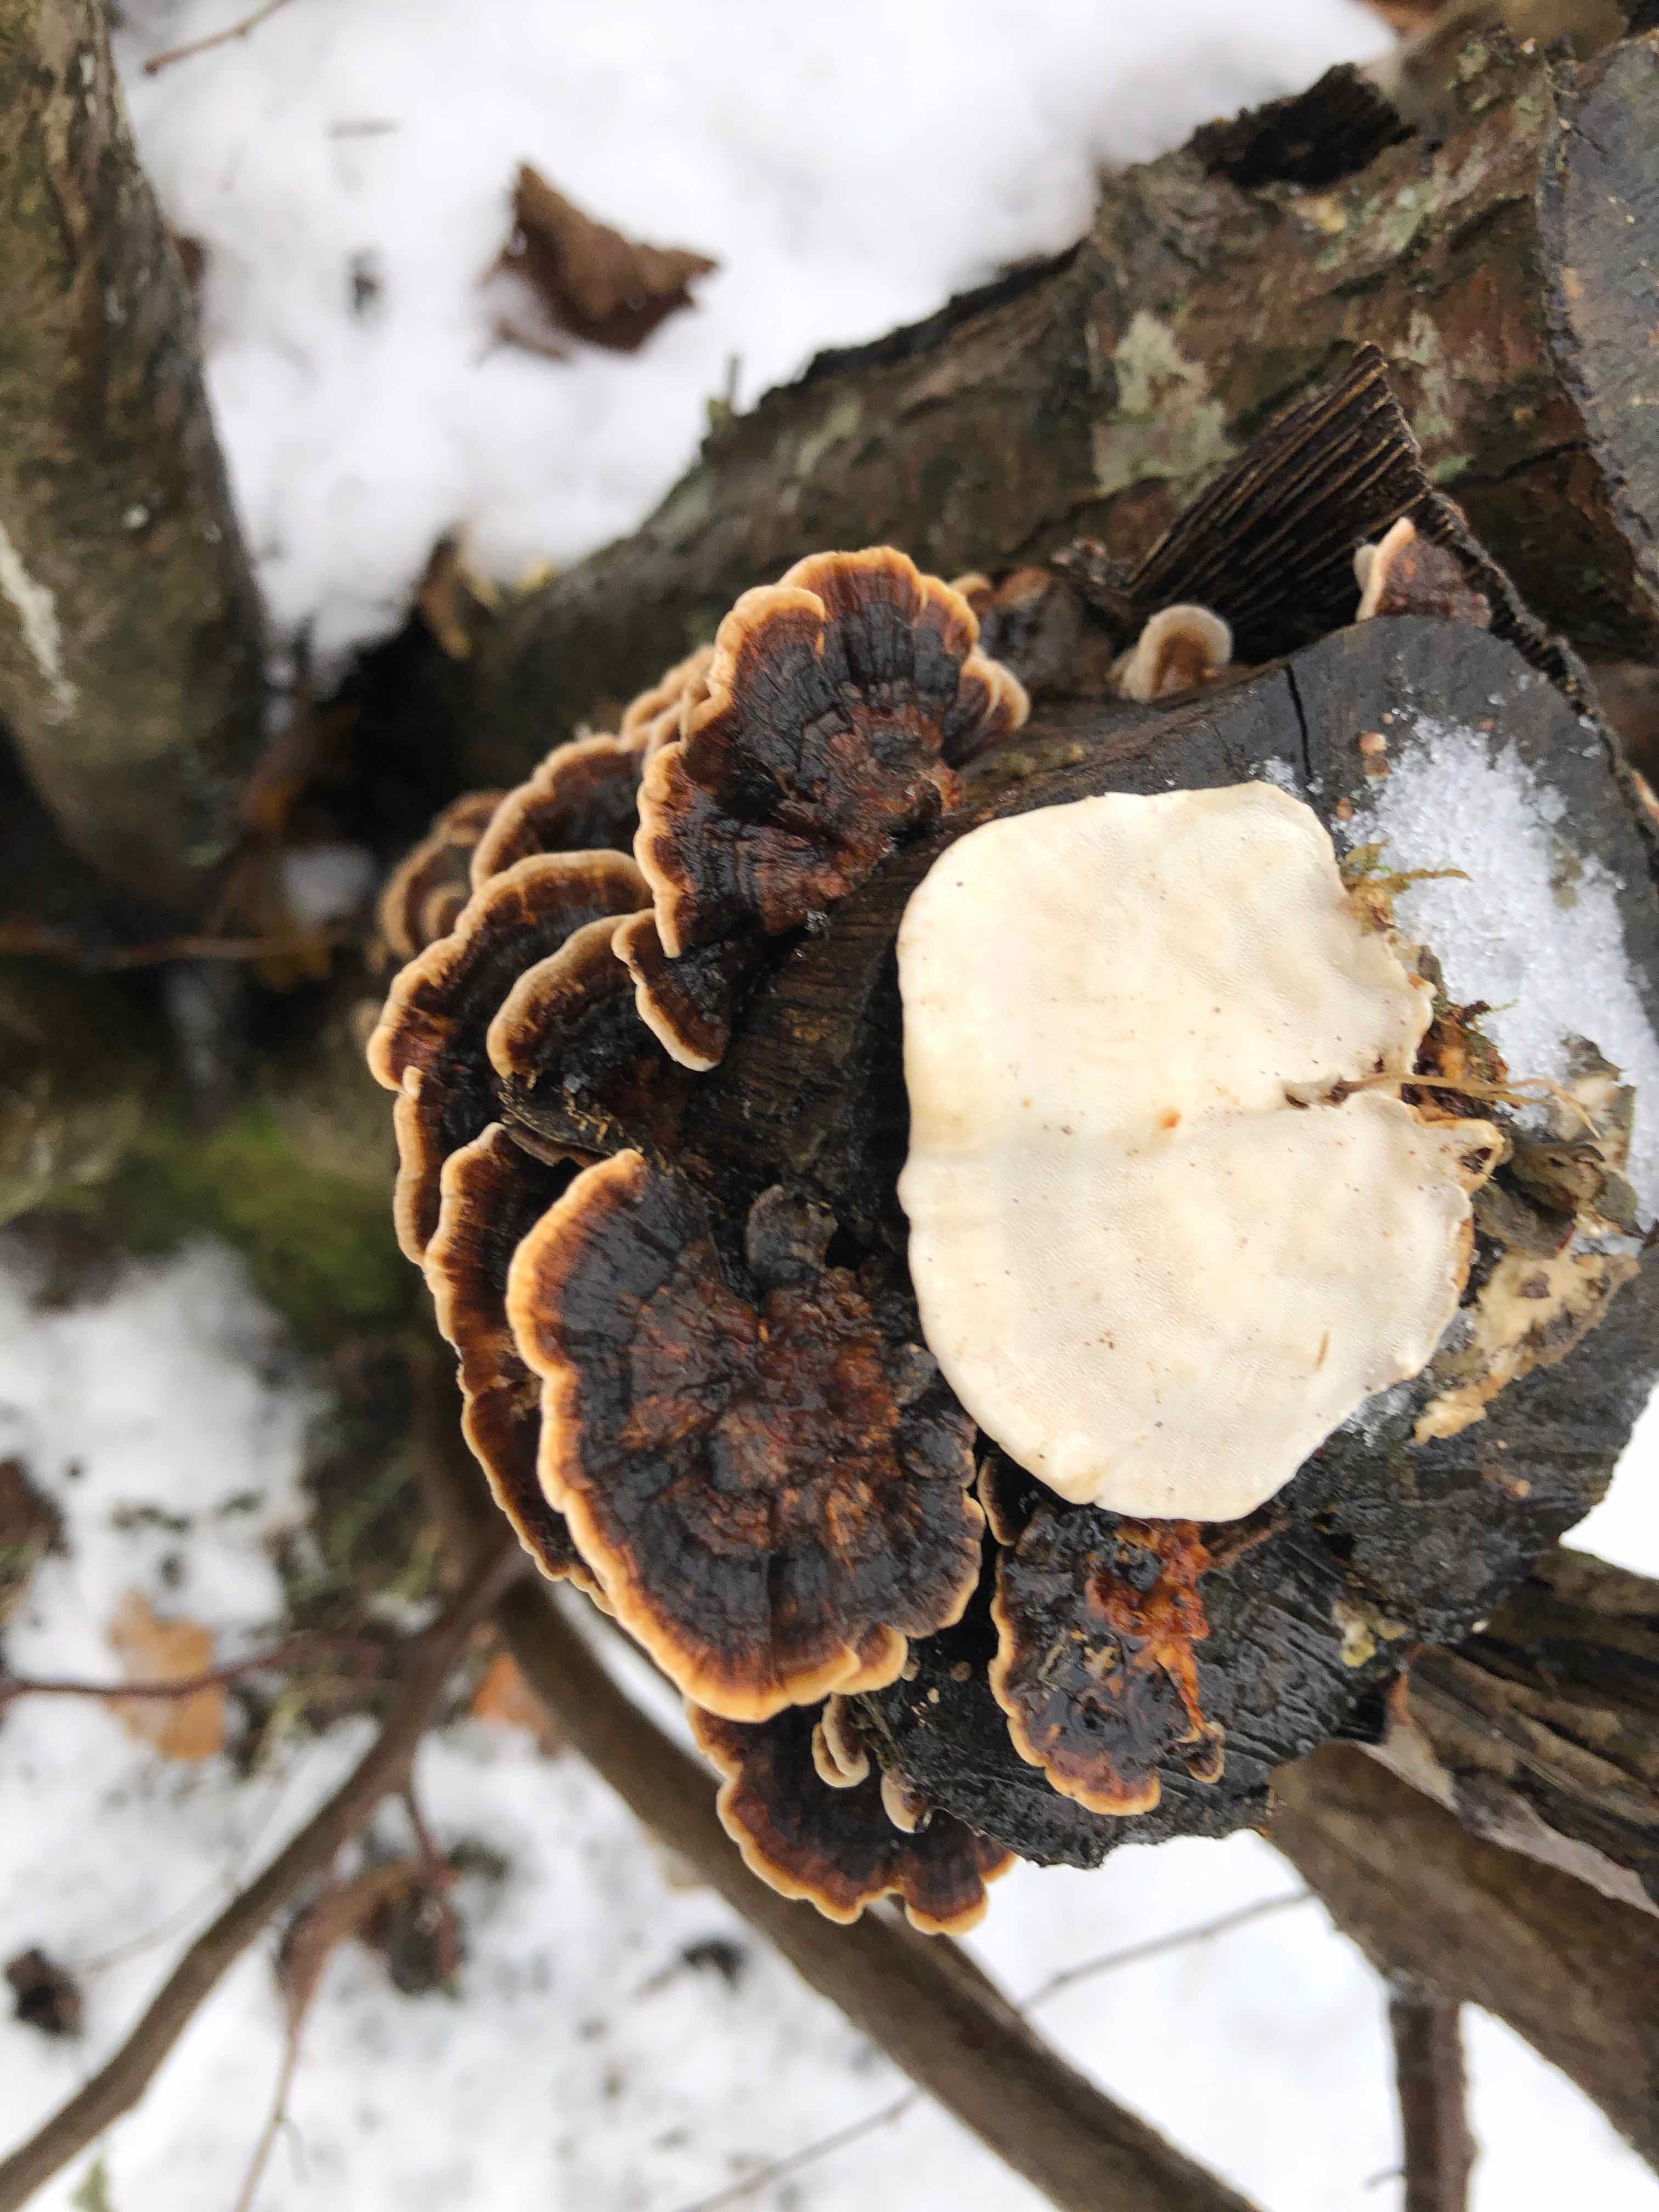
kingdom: Fungi
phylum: Basidiomycota
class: Agaricomycetes
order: Polyporales
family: Polyporaceae
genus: Trametes
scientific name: Trametes versicolor
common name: broget læderporesvamp
